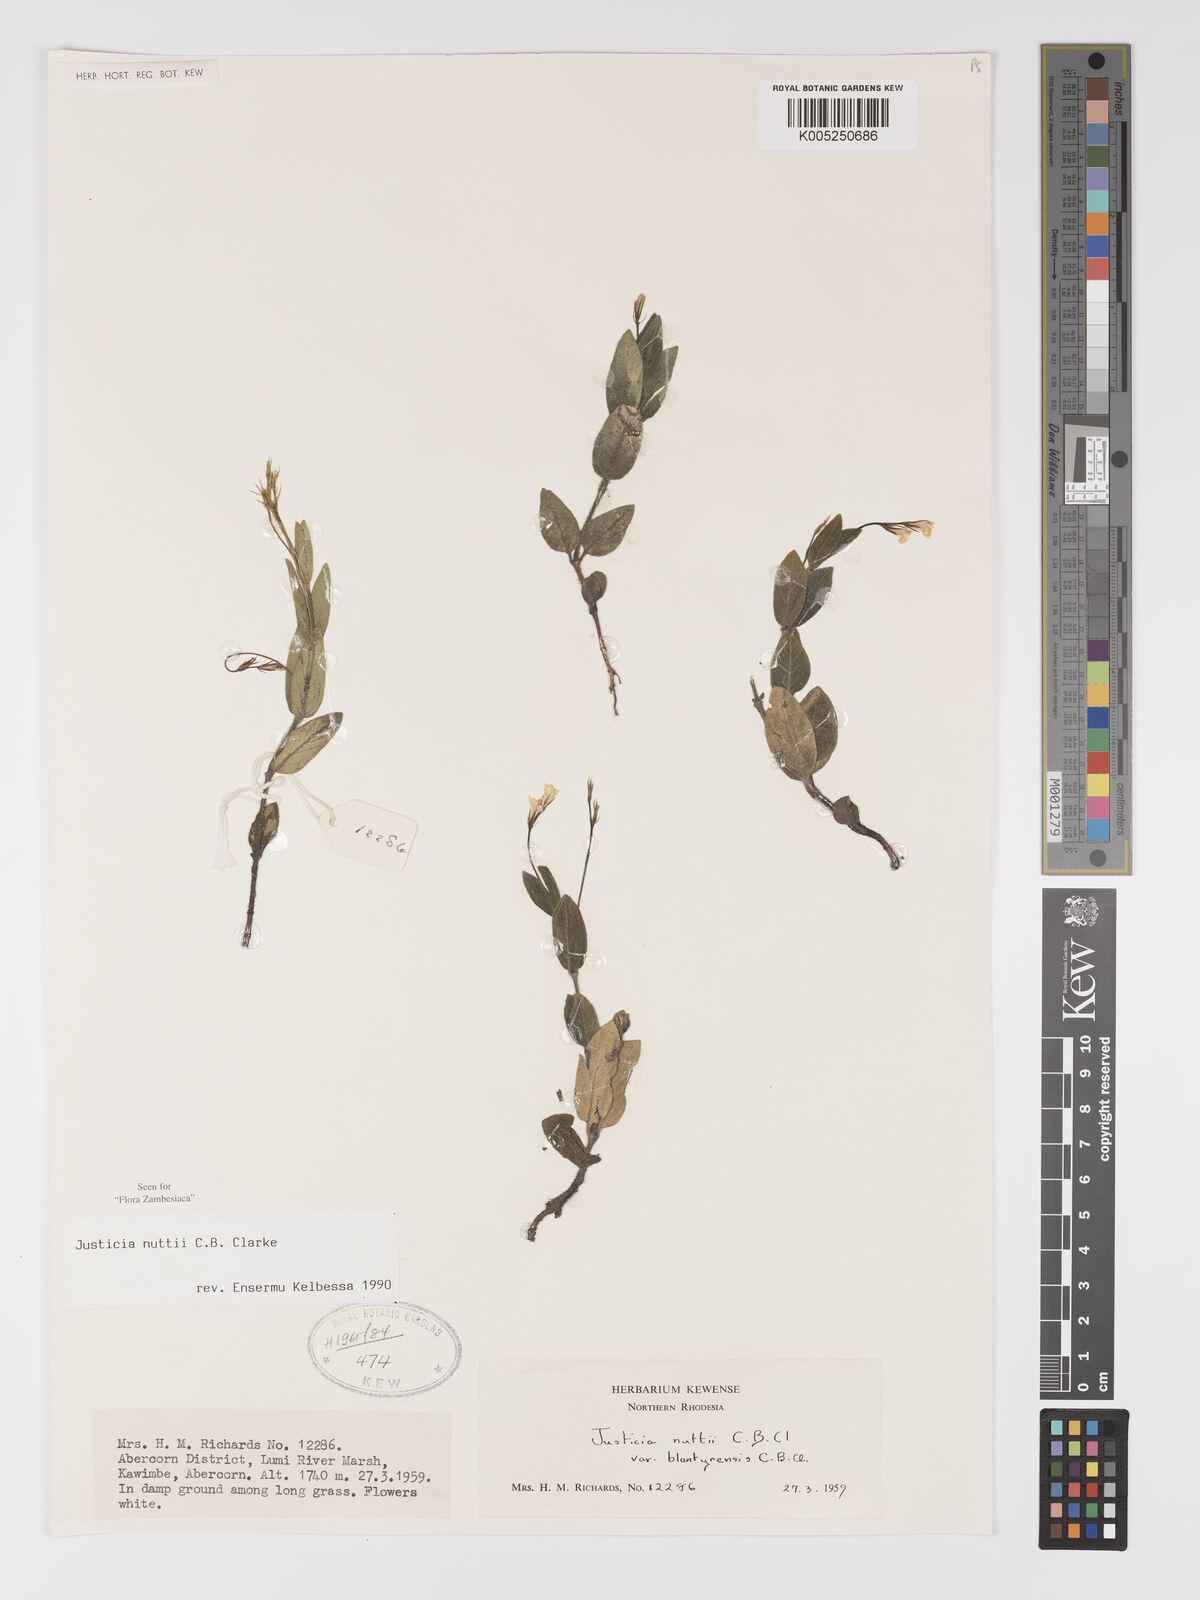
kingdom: Plantae
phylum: Tracheophyta
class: Magnoliopsida
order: Lamiales
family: Acanthaceae
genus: Justicia
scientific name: Justicia nuttii
